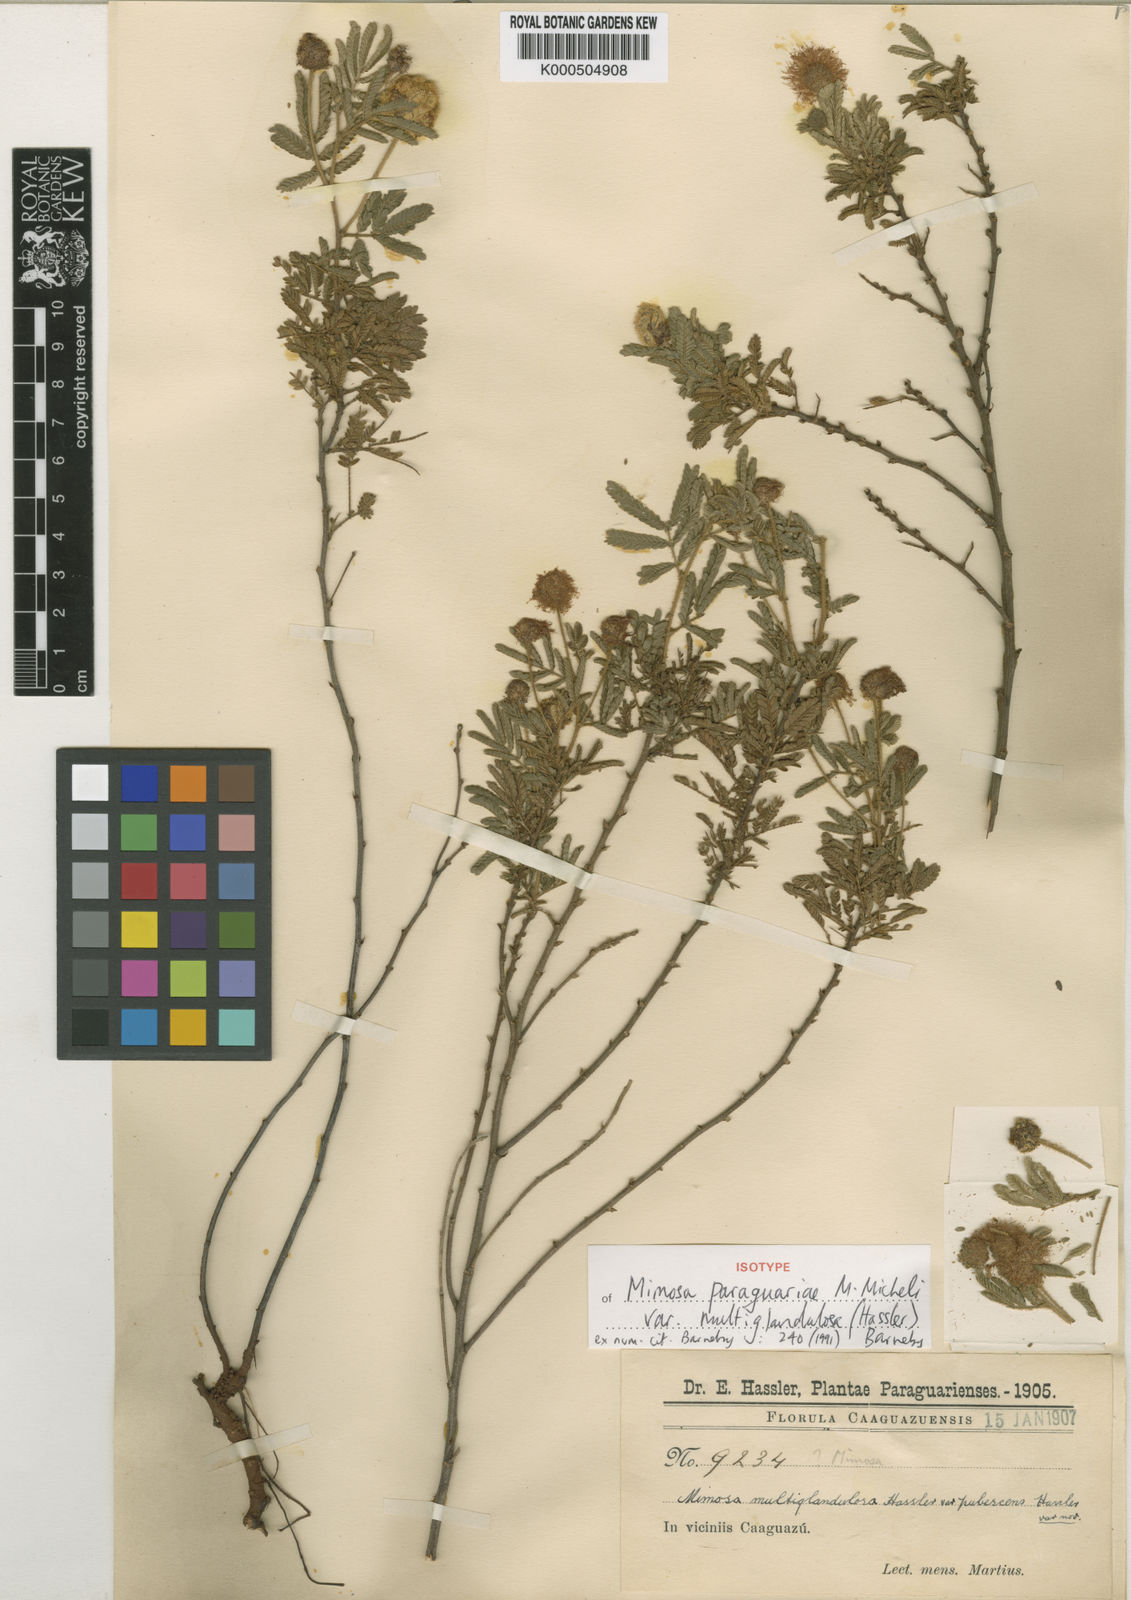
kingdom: Plantae
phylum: Tracheophyta
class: Magnoliopsida
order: Fabales
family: Fabaceae
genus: Mimosa
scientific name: Mimosa paraguariae
